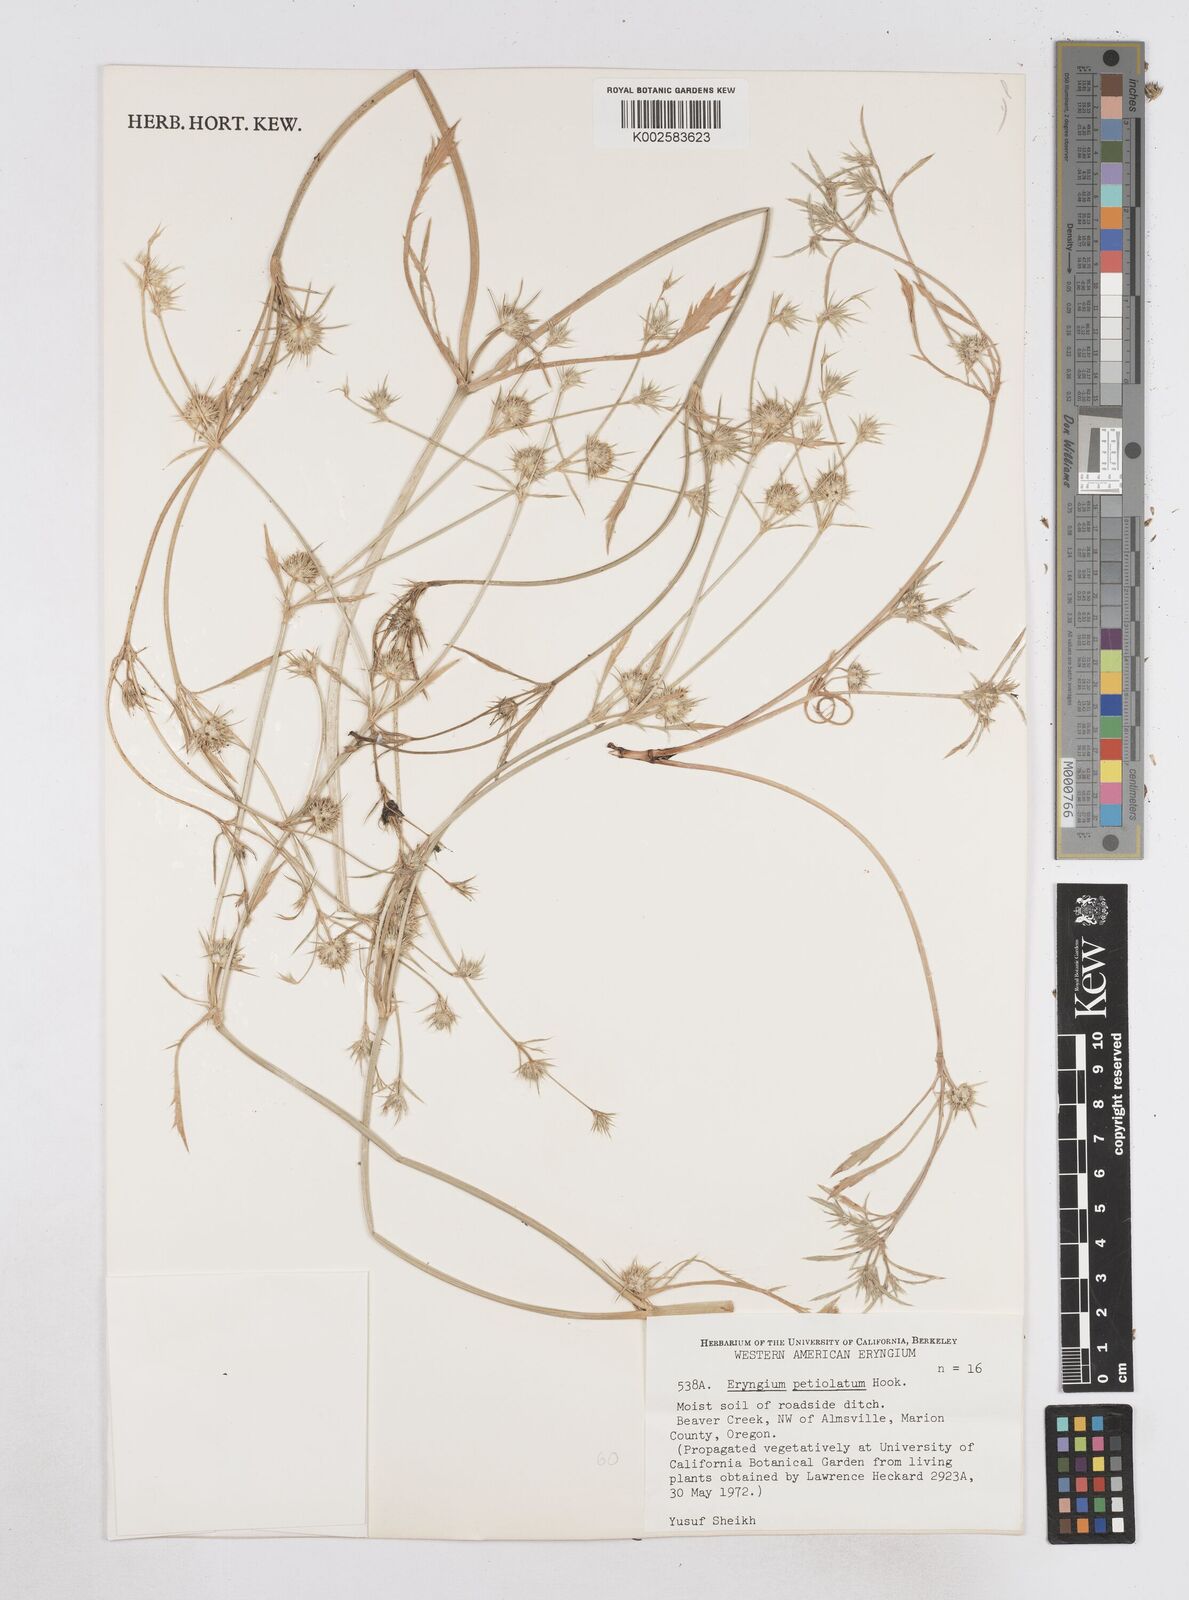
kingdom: Plantae
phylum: Tracheophyta
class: Magnoliopsida
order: Apiales
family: Apiaceae
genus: Eryngium
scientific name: Eryngium petiolatum
